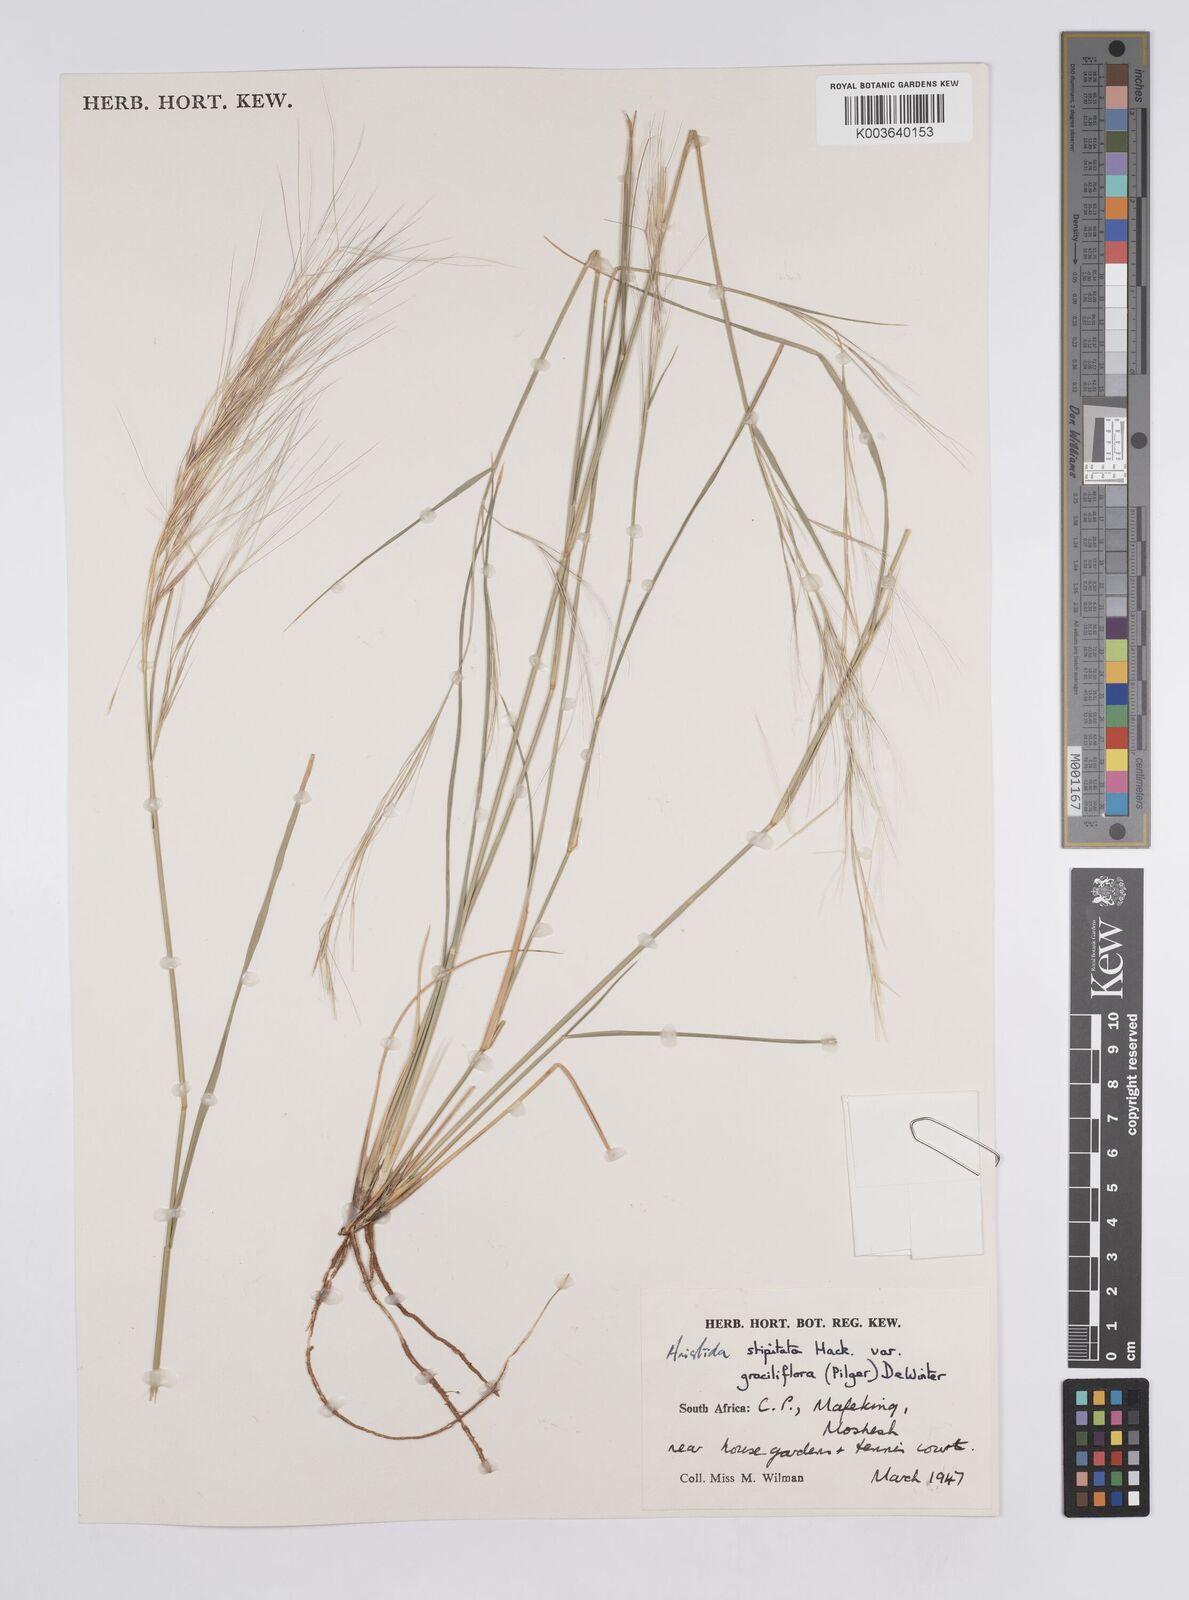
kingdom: Plantae
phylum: Tracheophyta
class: Liliopsida
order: Poales
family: Poaceae
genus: Aristida
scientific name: Aristida stipitata
